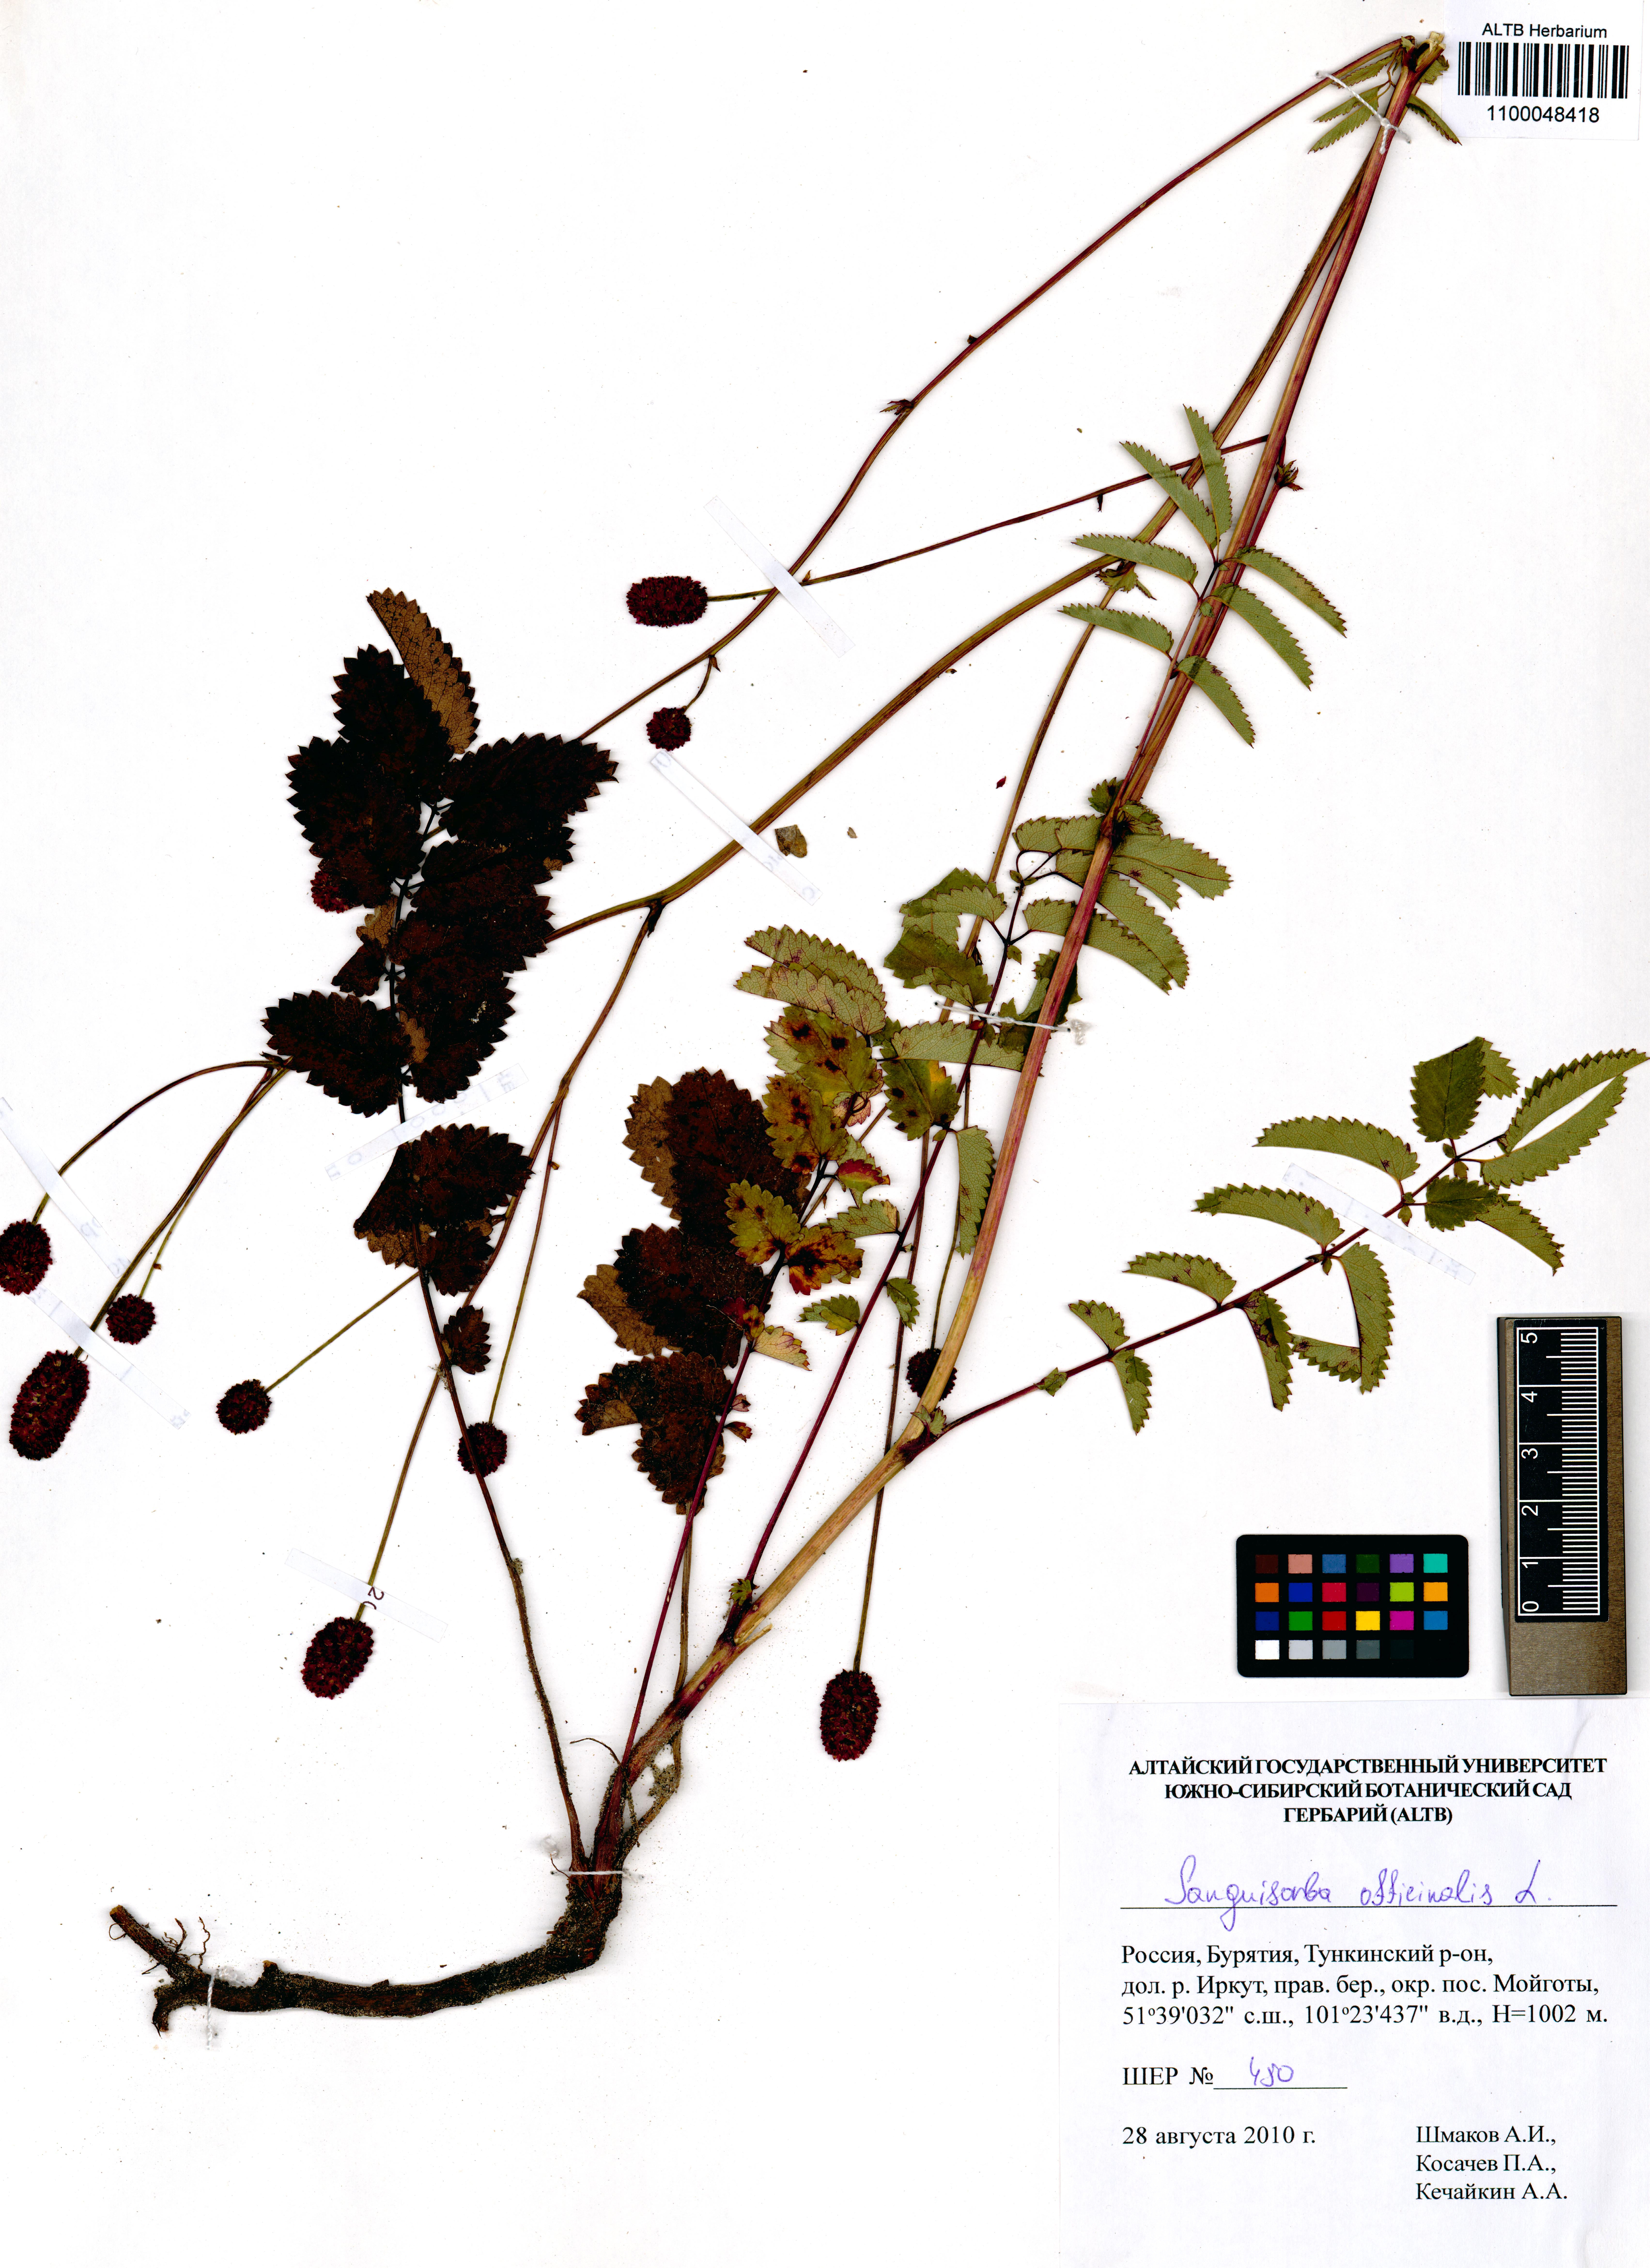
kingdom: Plantae
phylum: Tracheophyta
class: Magnoliopsida
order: Rosales
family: Rosaceae
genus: Sanguisorba
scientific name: Sanguisorba officinalis
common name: Great burnet
